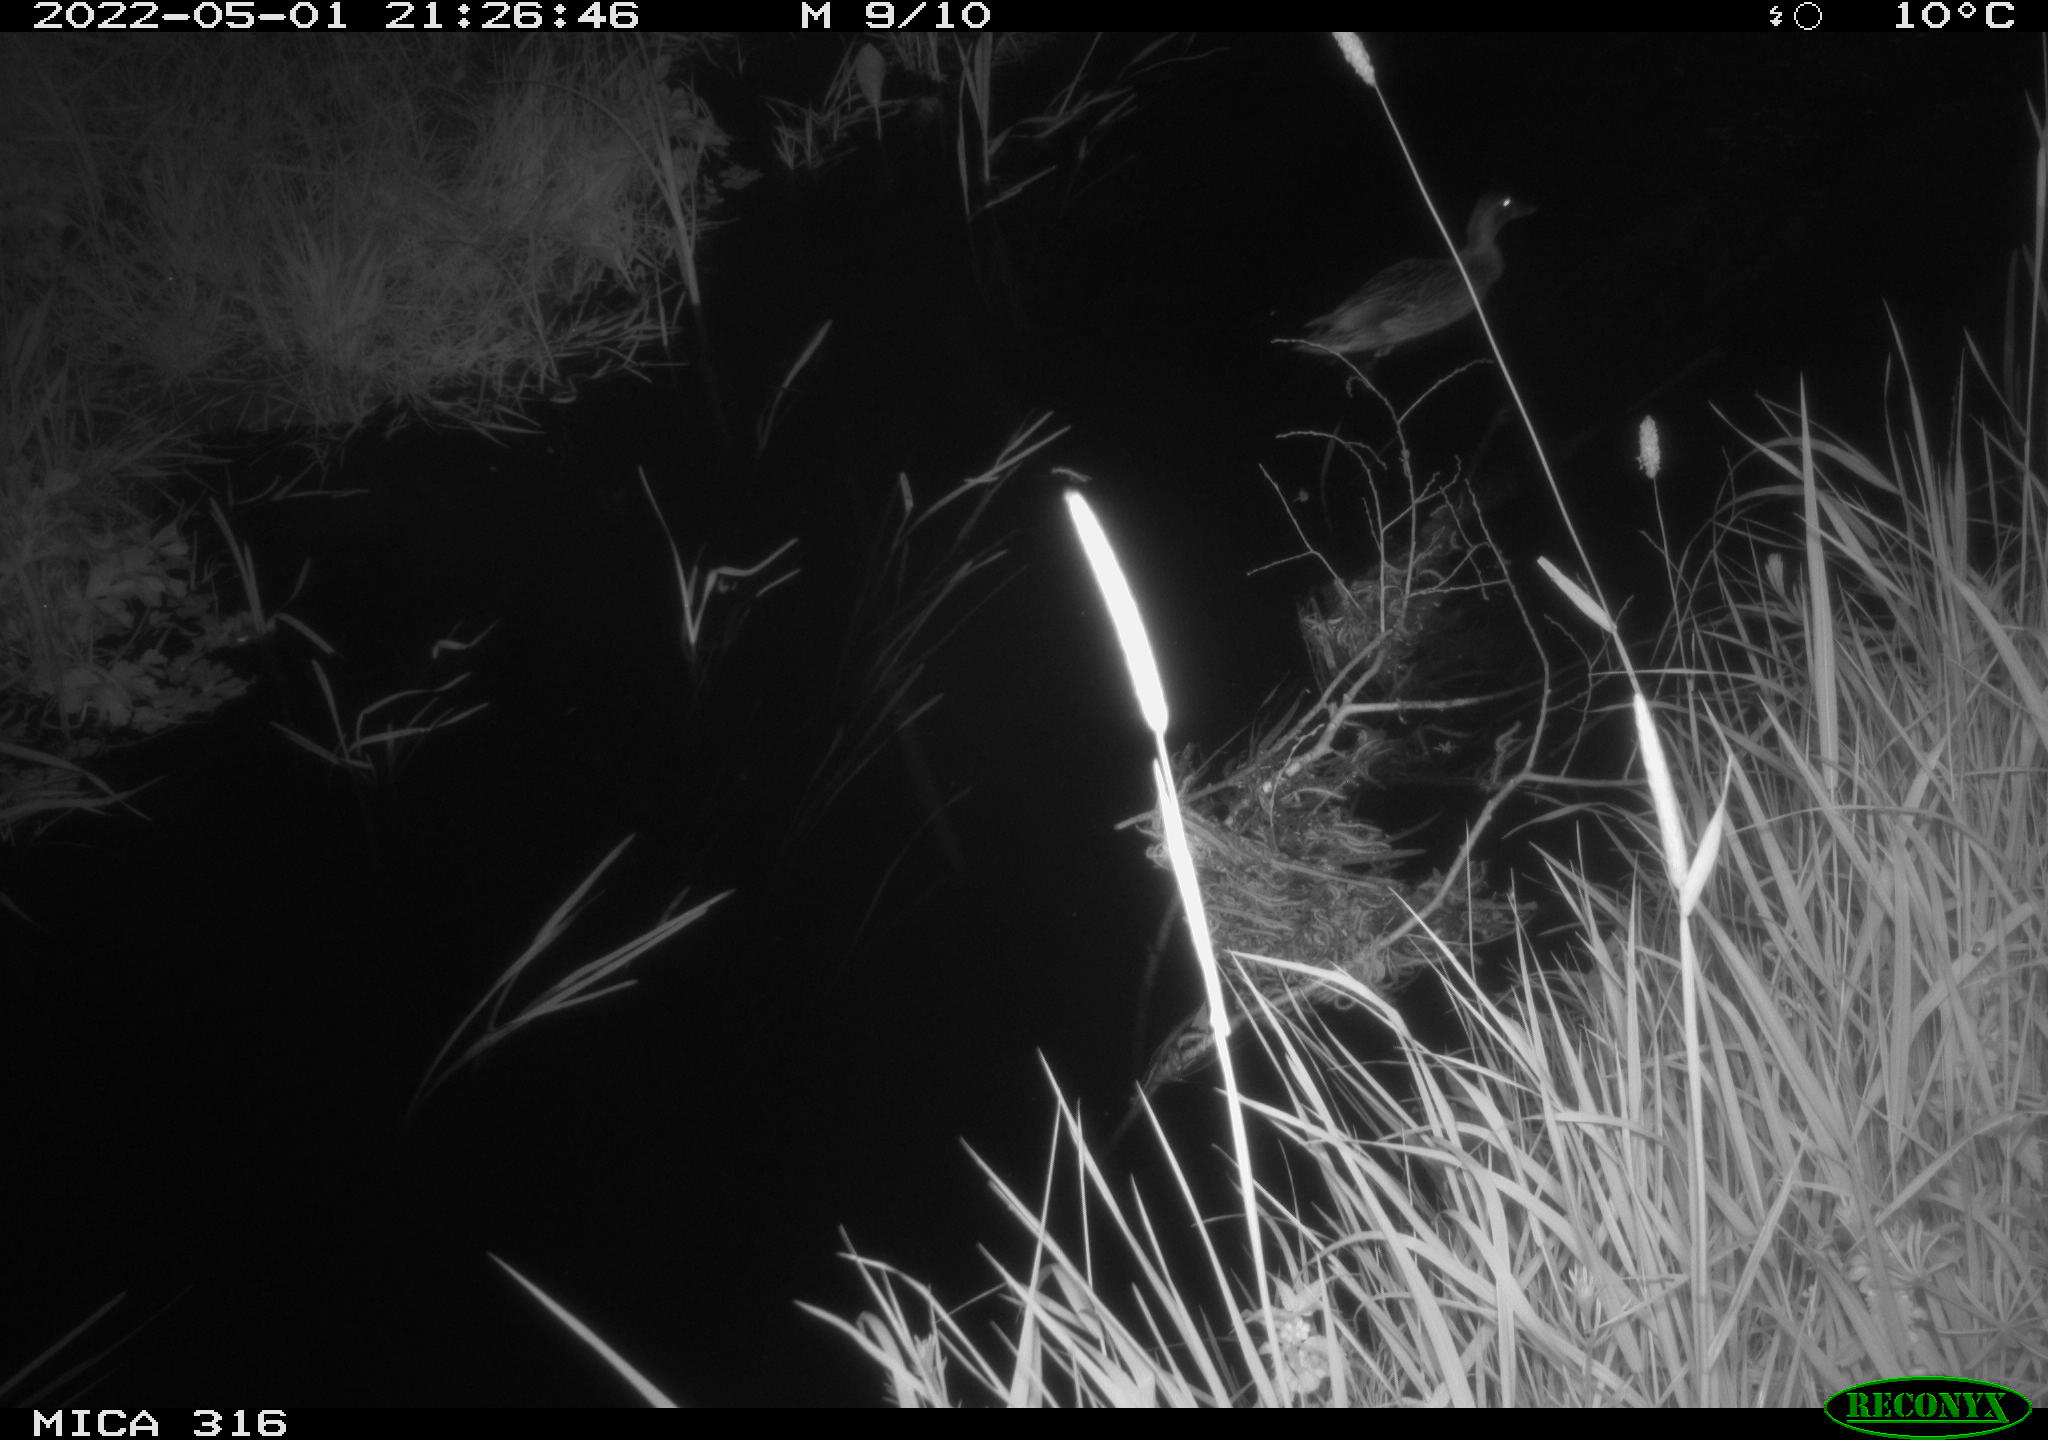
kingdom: Animalia
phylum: Chordata
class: Aves
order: Anseriformes
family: Anatidae
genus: Anas
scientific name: Anas platyrhynchos
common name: Mallard
